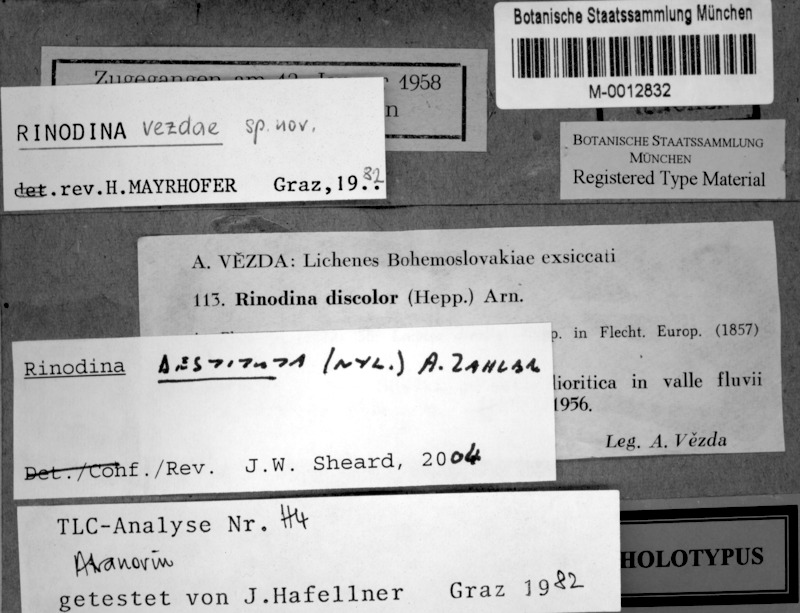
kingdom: Fungi
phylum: Ascomycota
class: Lecanoromycetes
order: Caliciales
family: Physciaceae
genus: Mischoblastia
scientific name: Mischoblastia destituta
